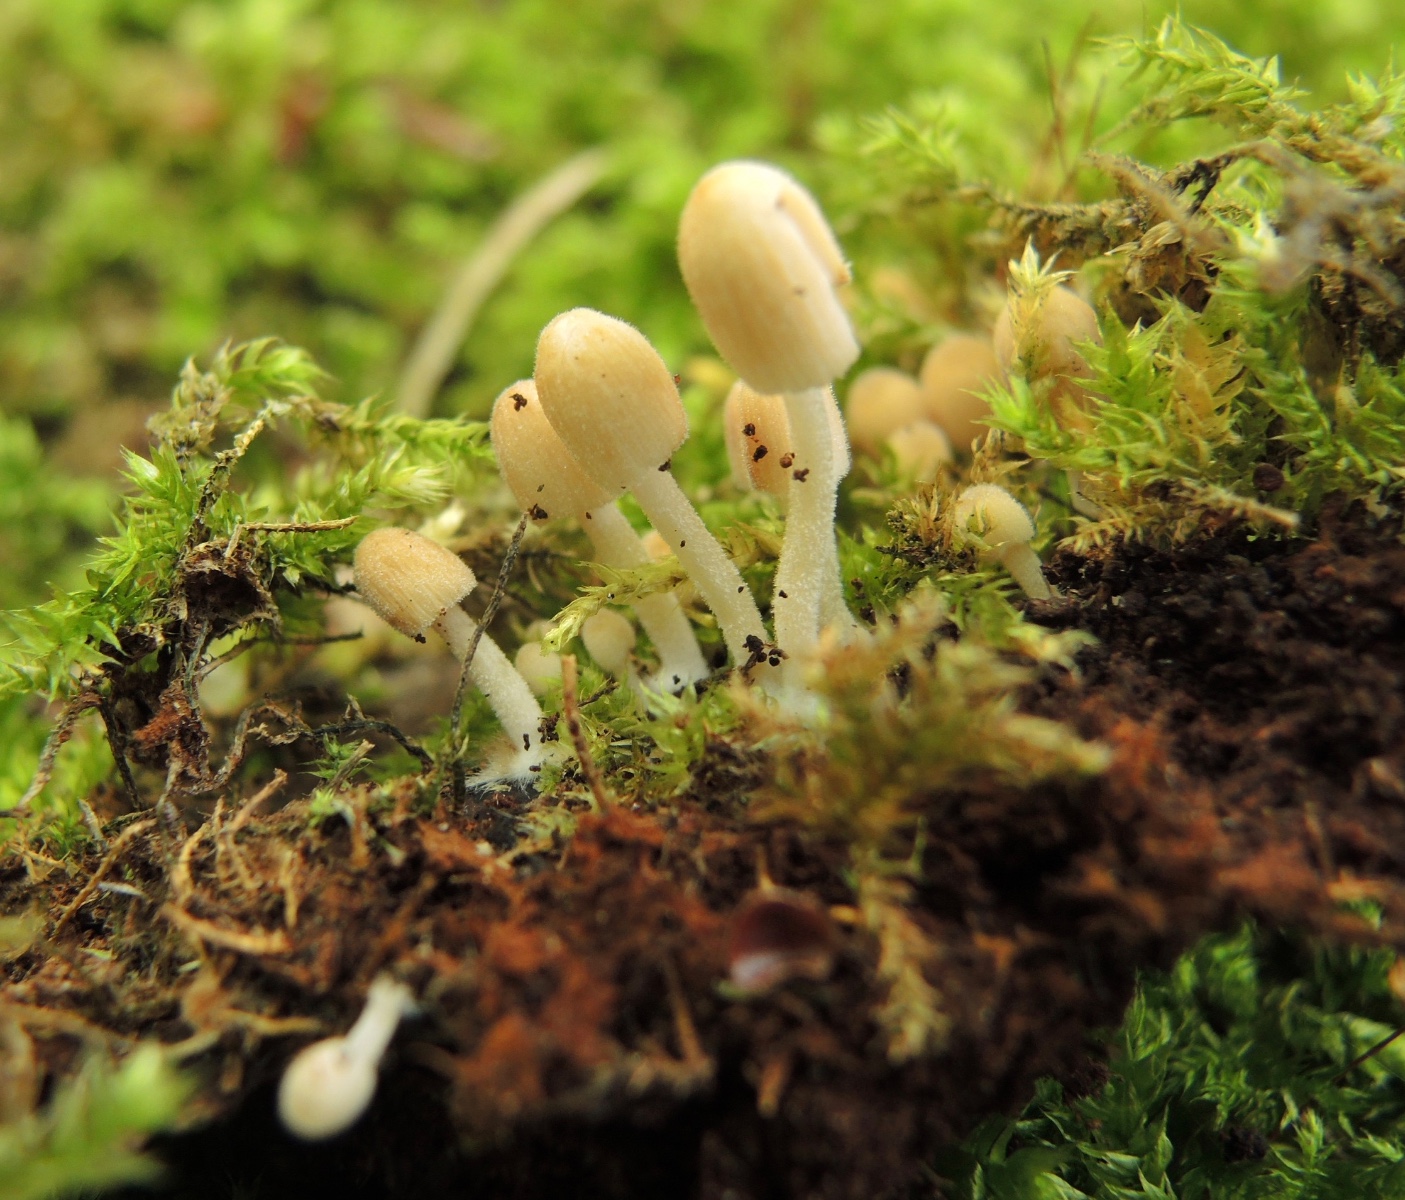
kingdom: Fungi
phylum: Basidiomycota
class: Agaricomycetes
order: Agaricales
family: Psathyrellaceae
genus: Coprinellus
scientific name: Coprinellus disseminatus
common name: bredsået blækhat
